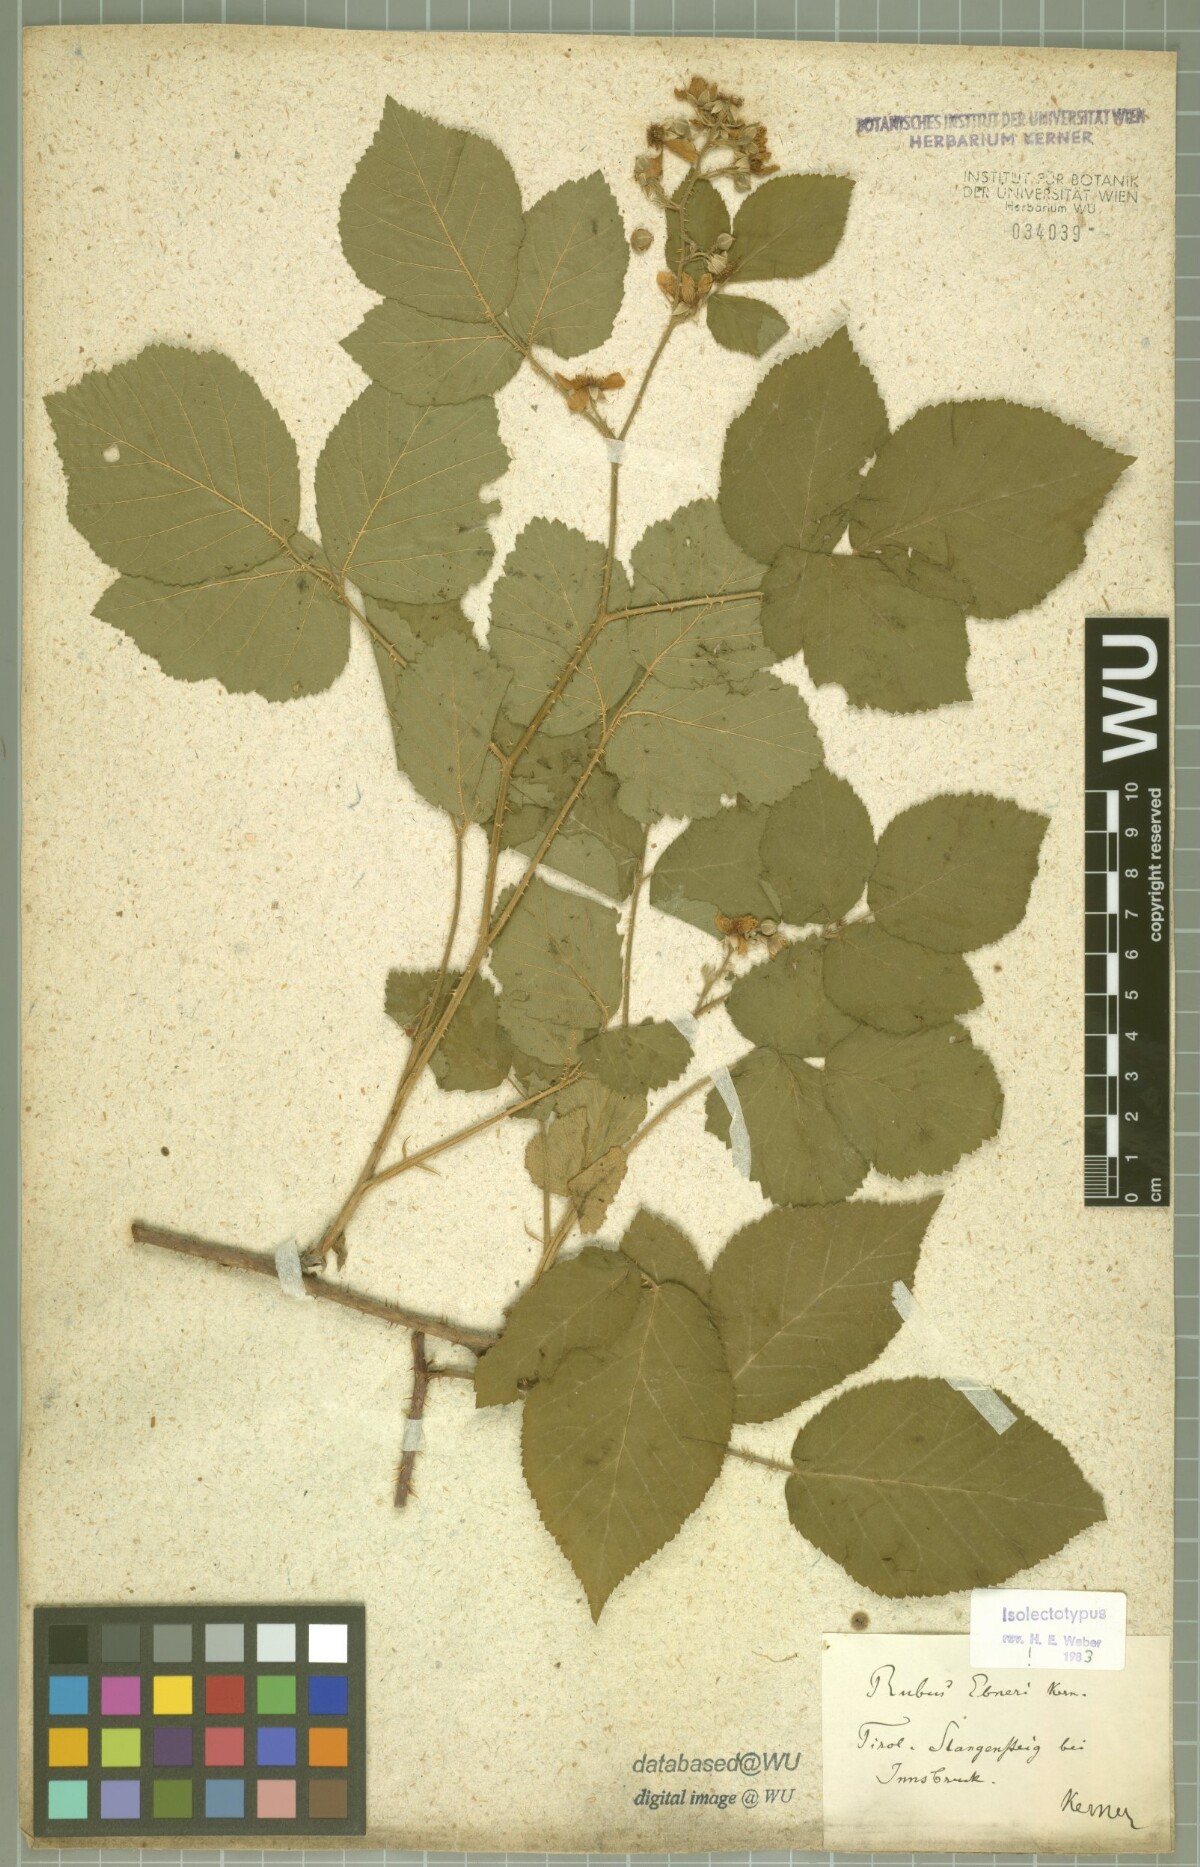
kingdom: Plantae
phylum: Tracheophyta
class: Magnoliopsida
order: Rosales
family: Rosaceae
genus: Rubus
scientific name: Rubus ebneri
